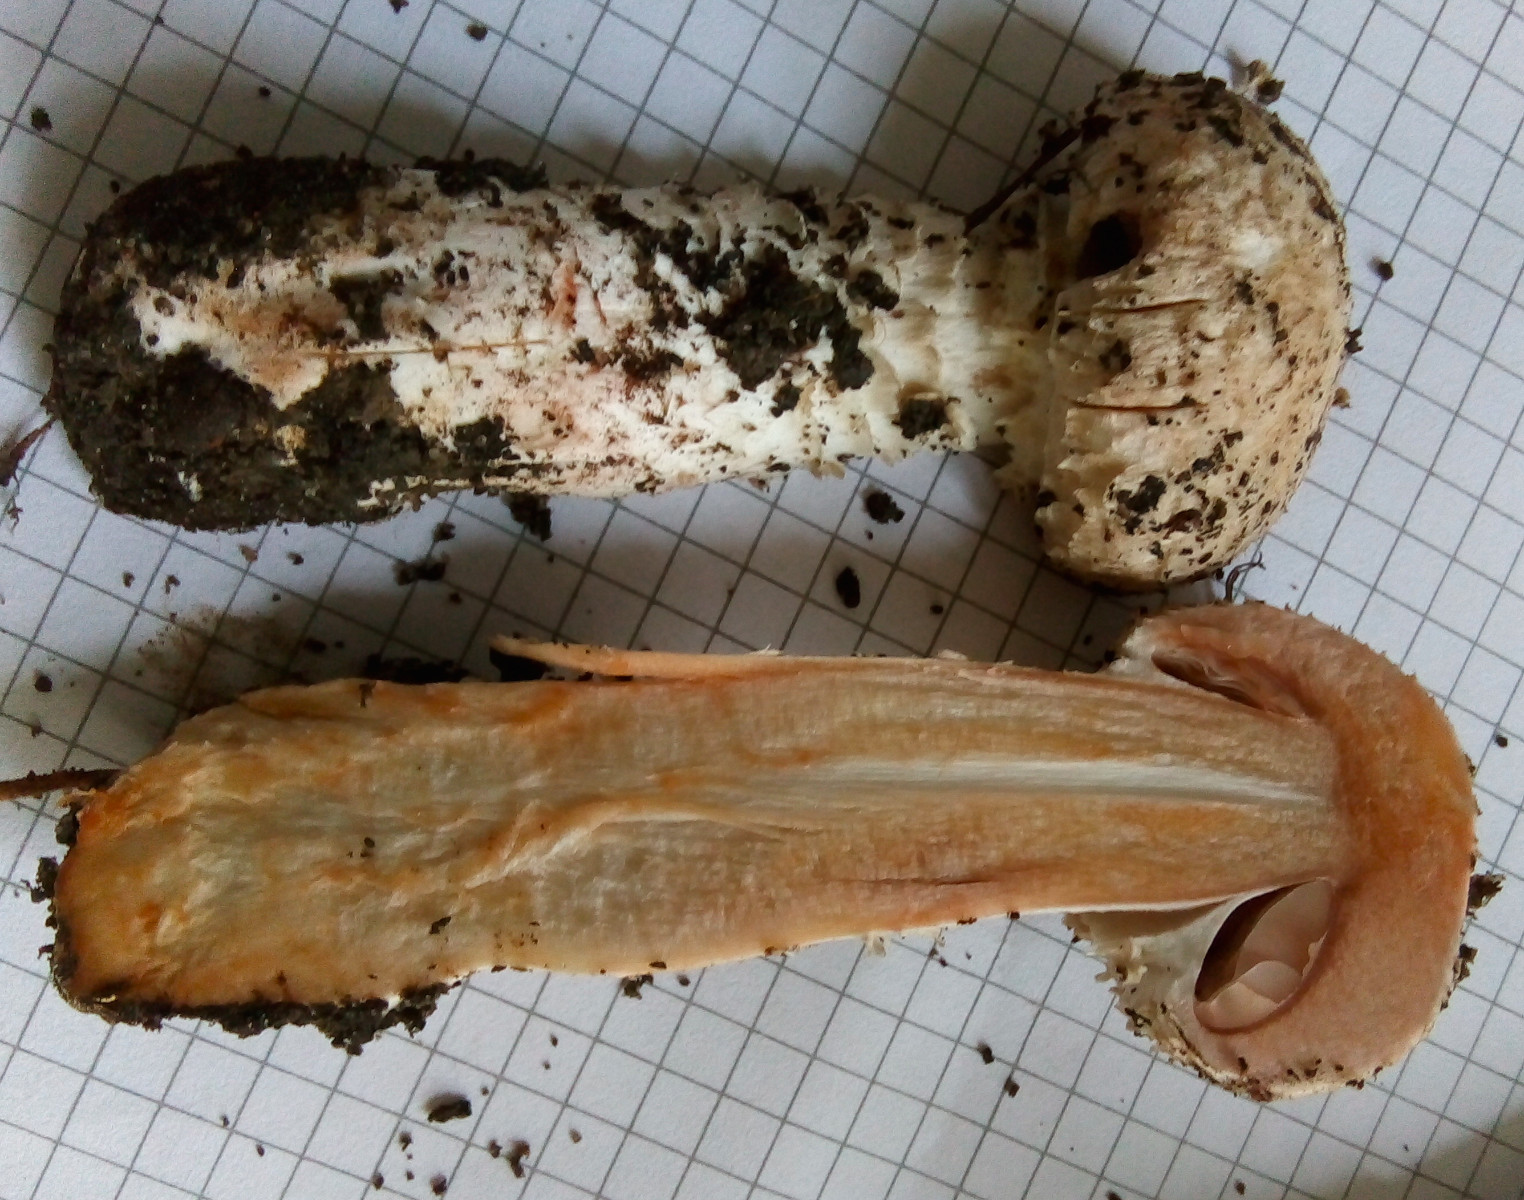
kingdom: Fungi
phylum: Basidiomycota
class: Agaricomycetes
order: Agaricales
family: Agaricaceae
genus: Agaricus
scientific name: Agaricus
